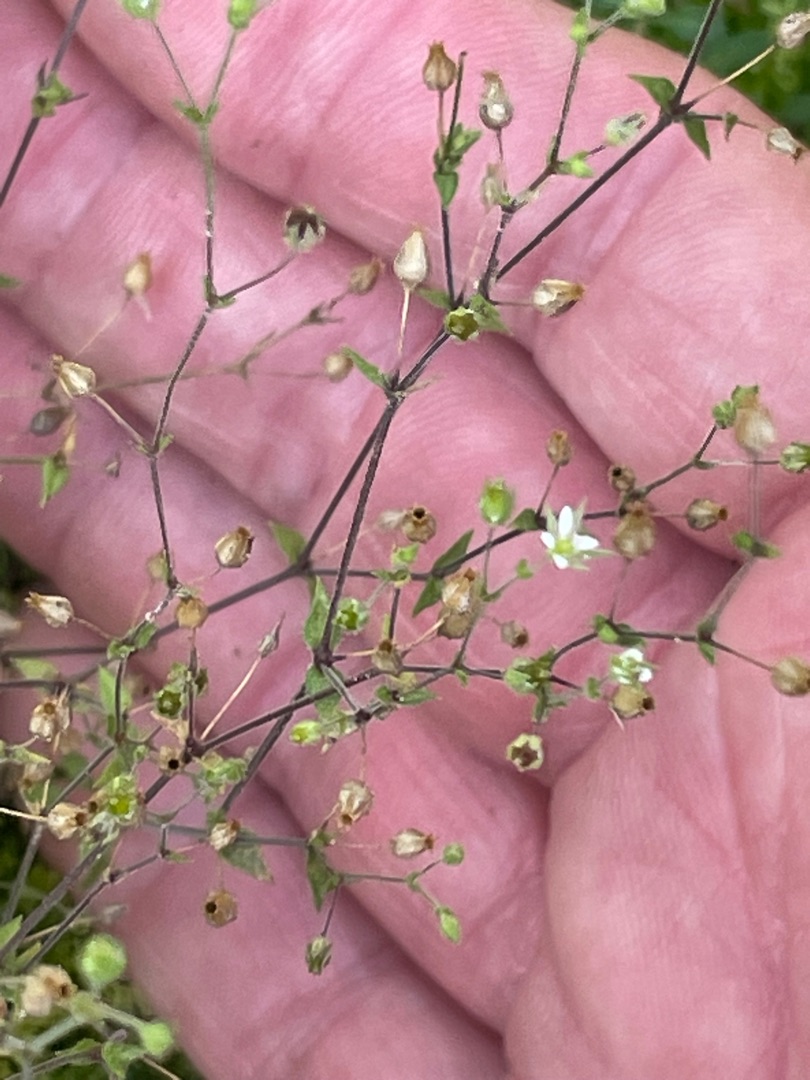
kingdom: Plantae
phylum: Tracheophyta
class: Magnoliopsida
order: Caryophyllales
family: Caryophyllaceae
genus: Arenaria
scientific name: Arenaria serpyllifolia
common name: Almindelig markarve
